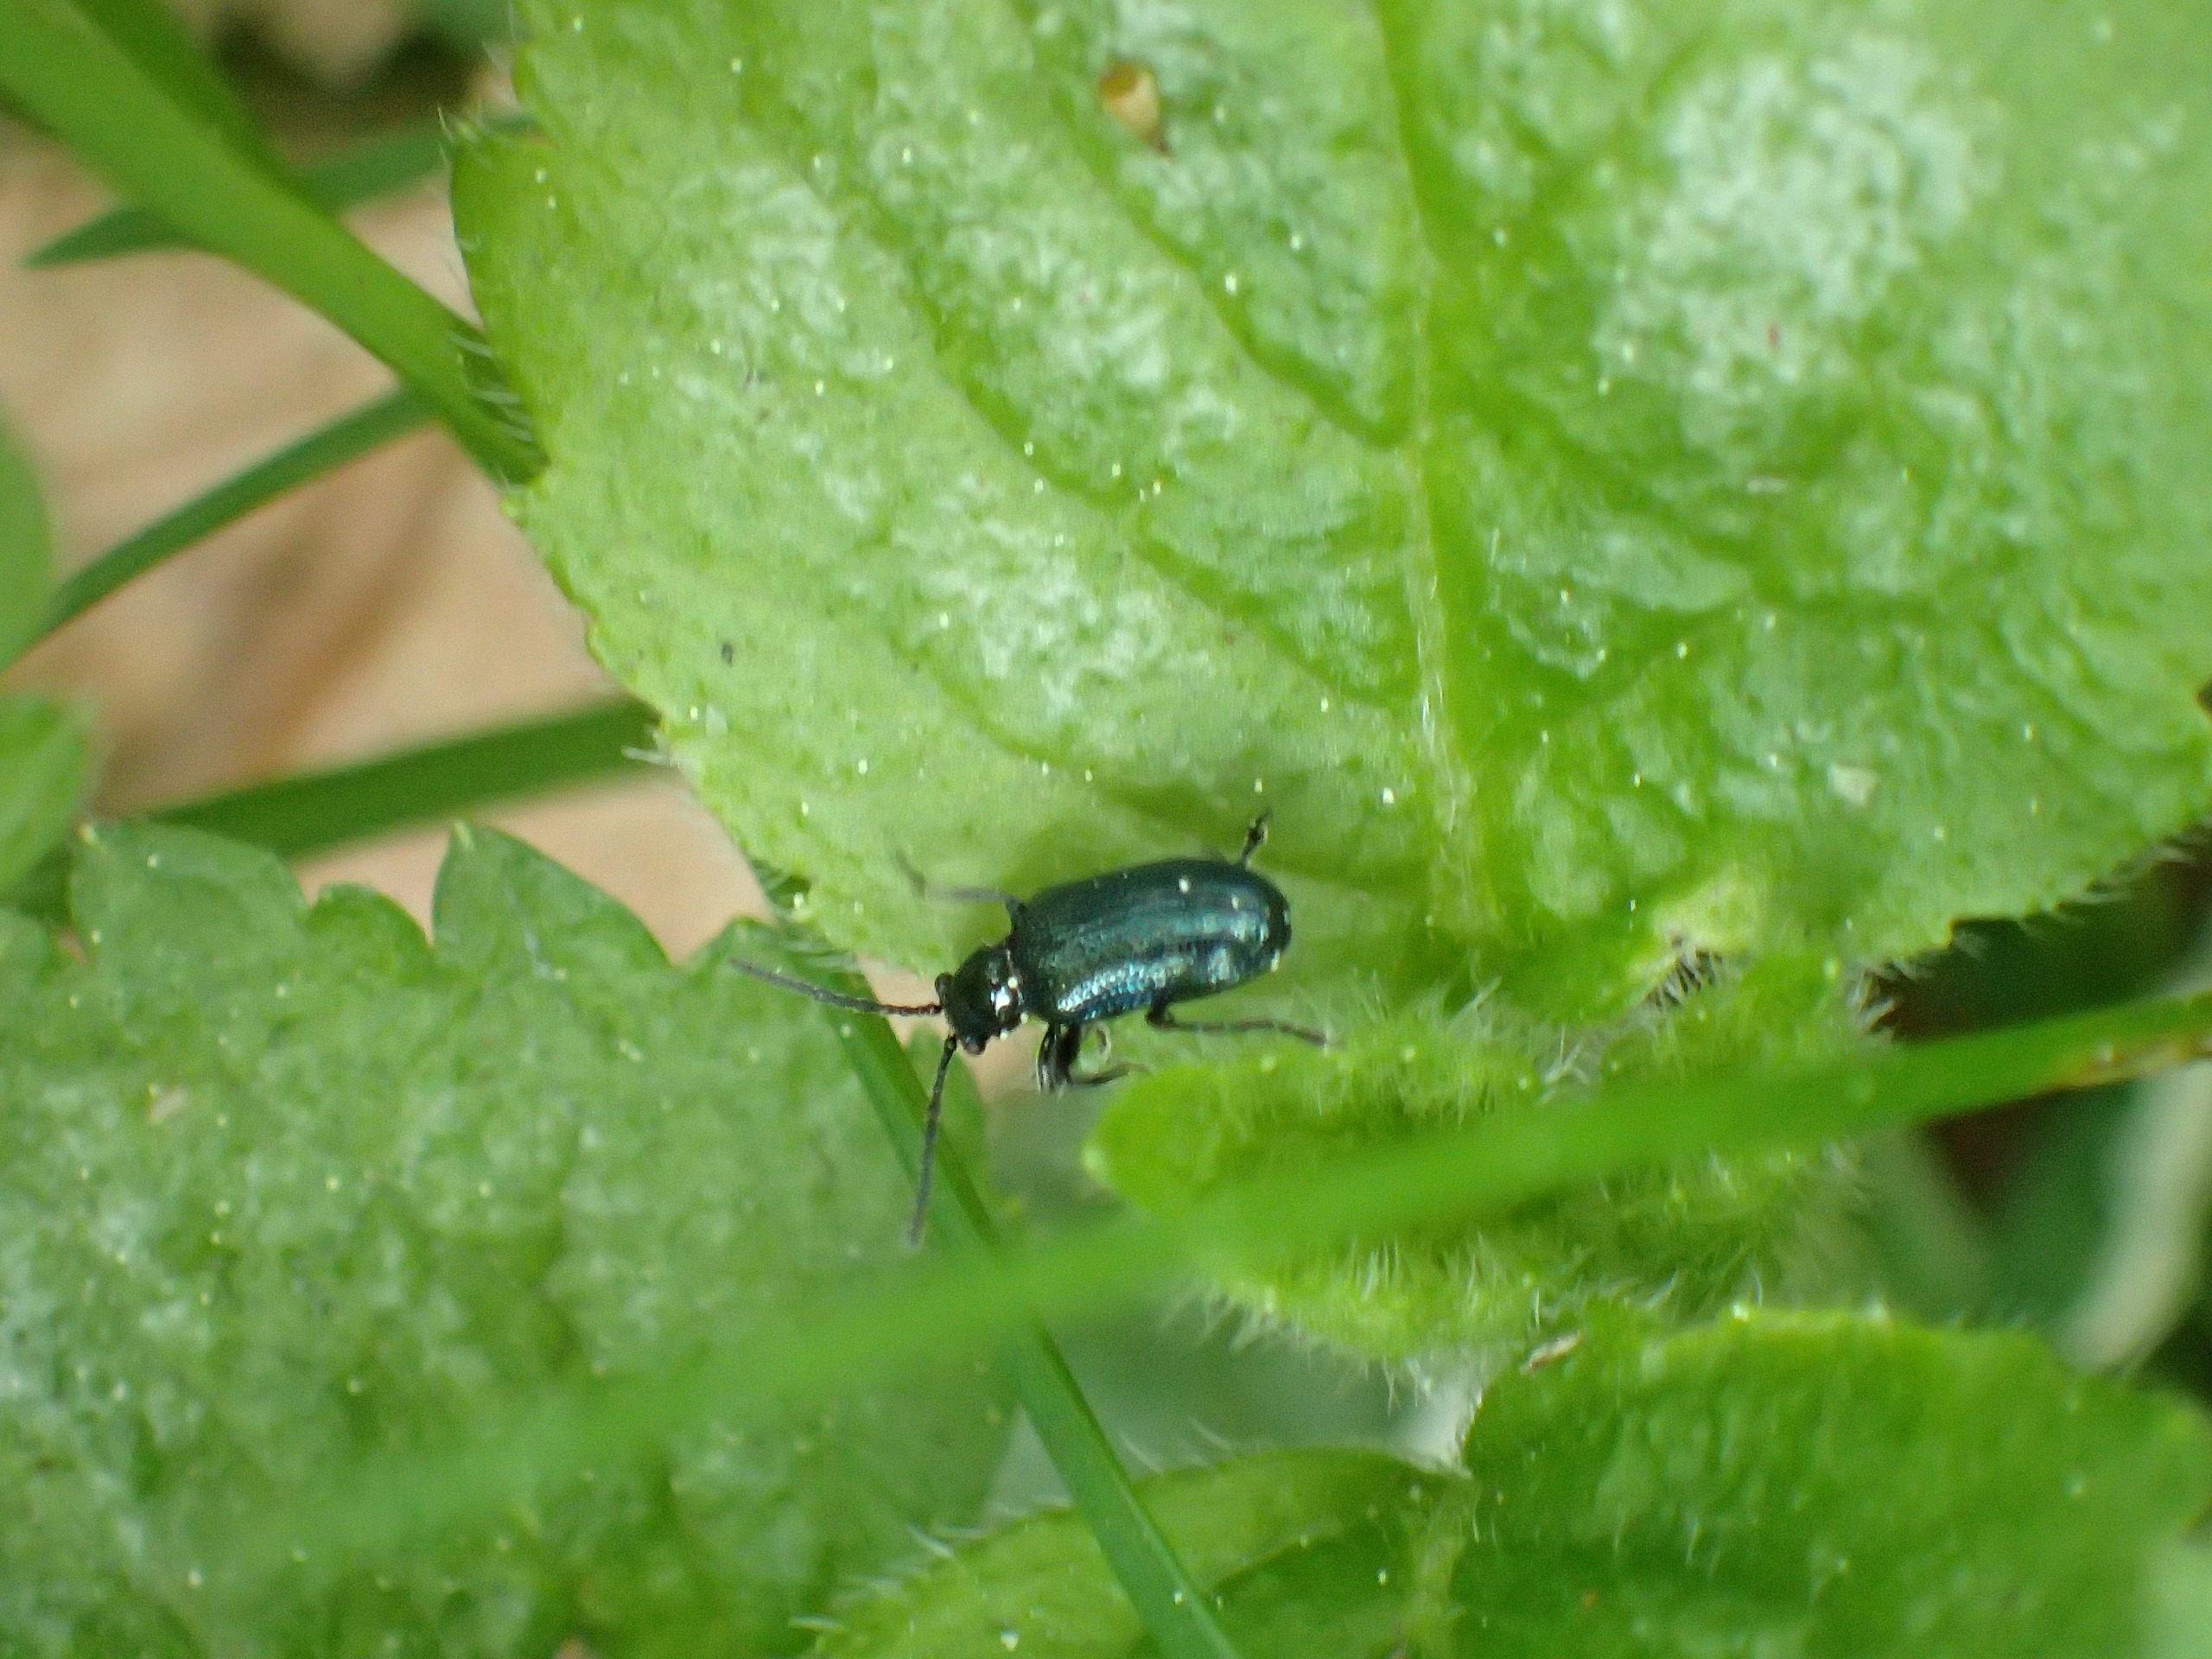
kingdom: Animalia
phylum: Arthropoda
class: Insecta
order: Coleoptera
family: Chrysomelidae
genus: Oulema
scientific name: Oulema gallaeciana
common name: Sortblå kornbladbille
